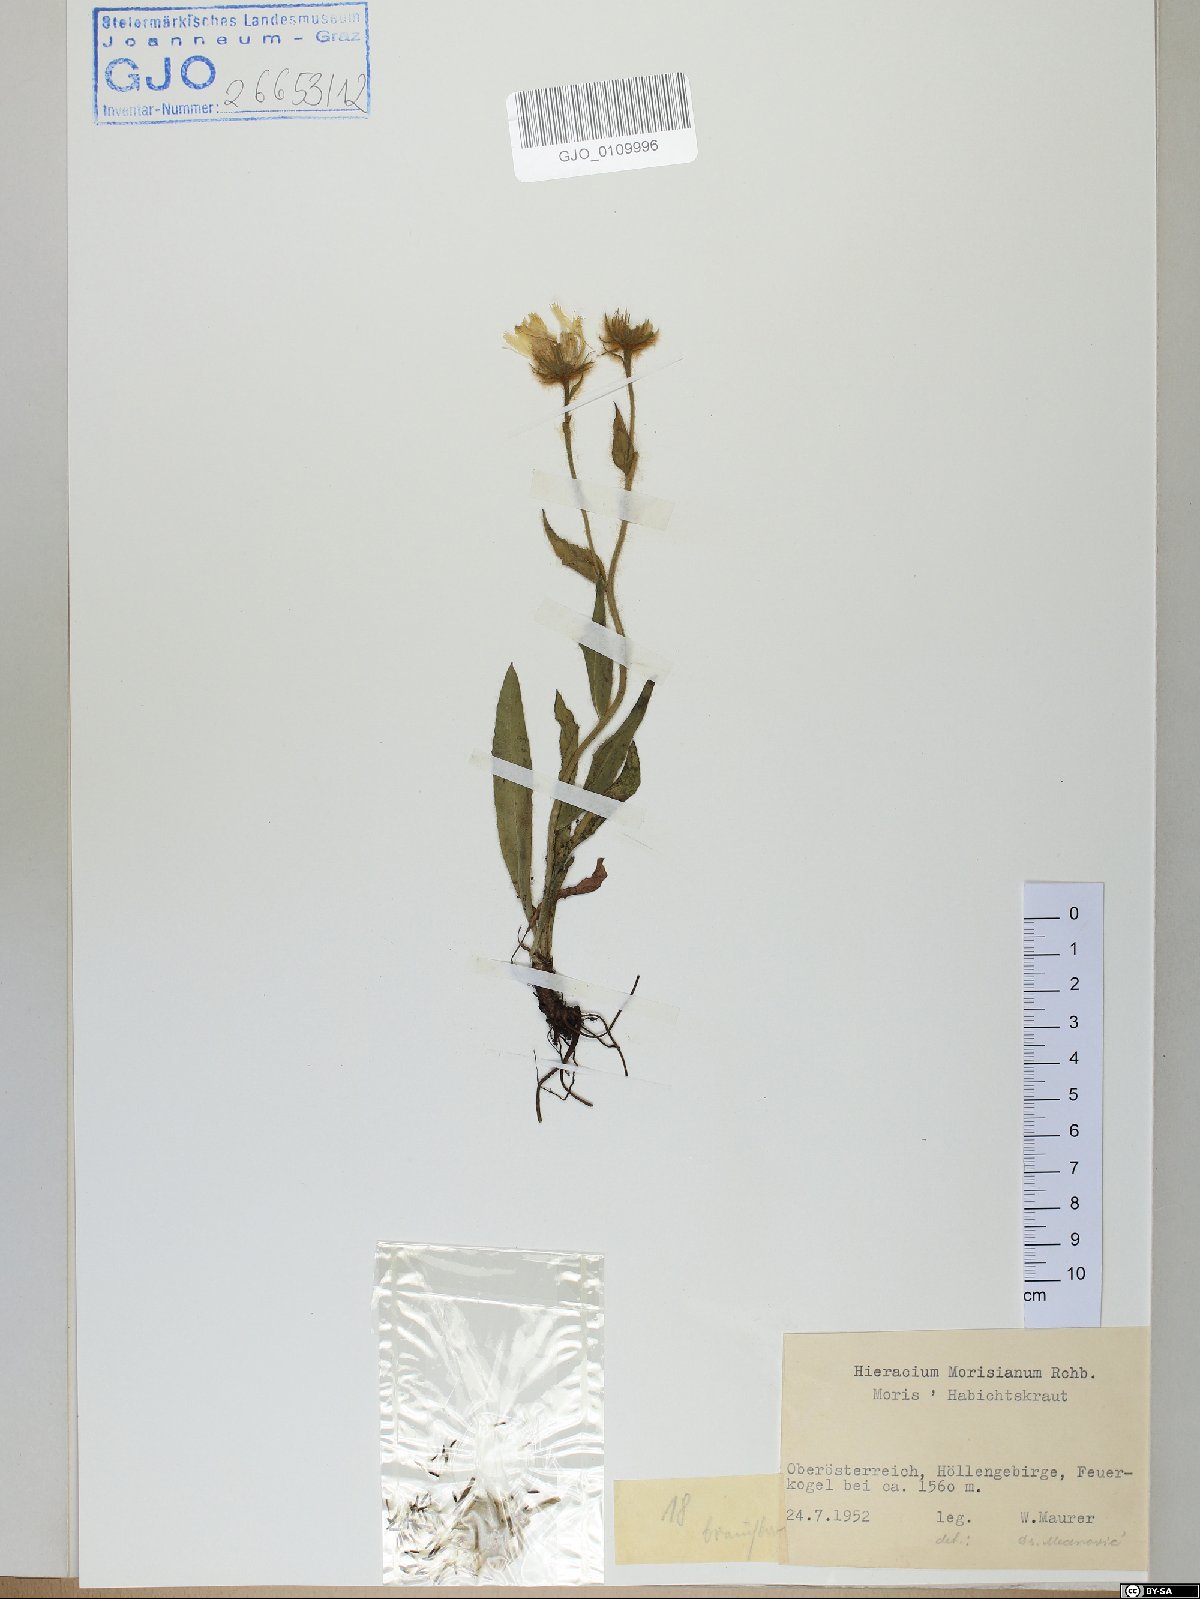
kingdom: Plantae
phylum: Tracheophyta
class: Magnoliopsida
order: Asterales
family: Asteraceae
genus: Hieracium
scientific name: Hieracium pilosum
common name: Fimbriate-pitted hawkweed
